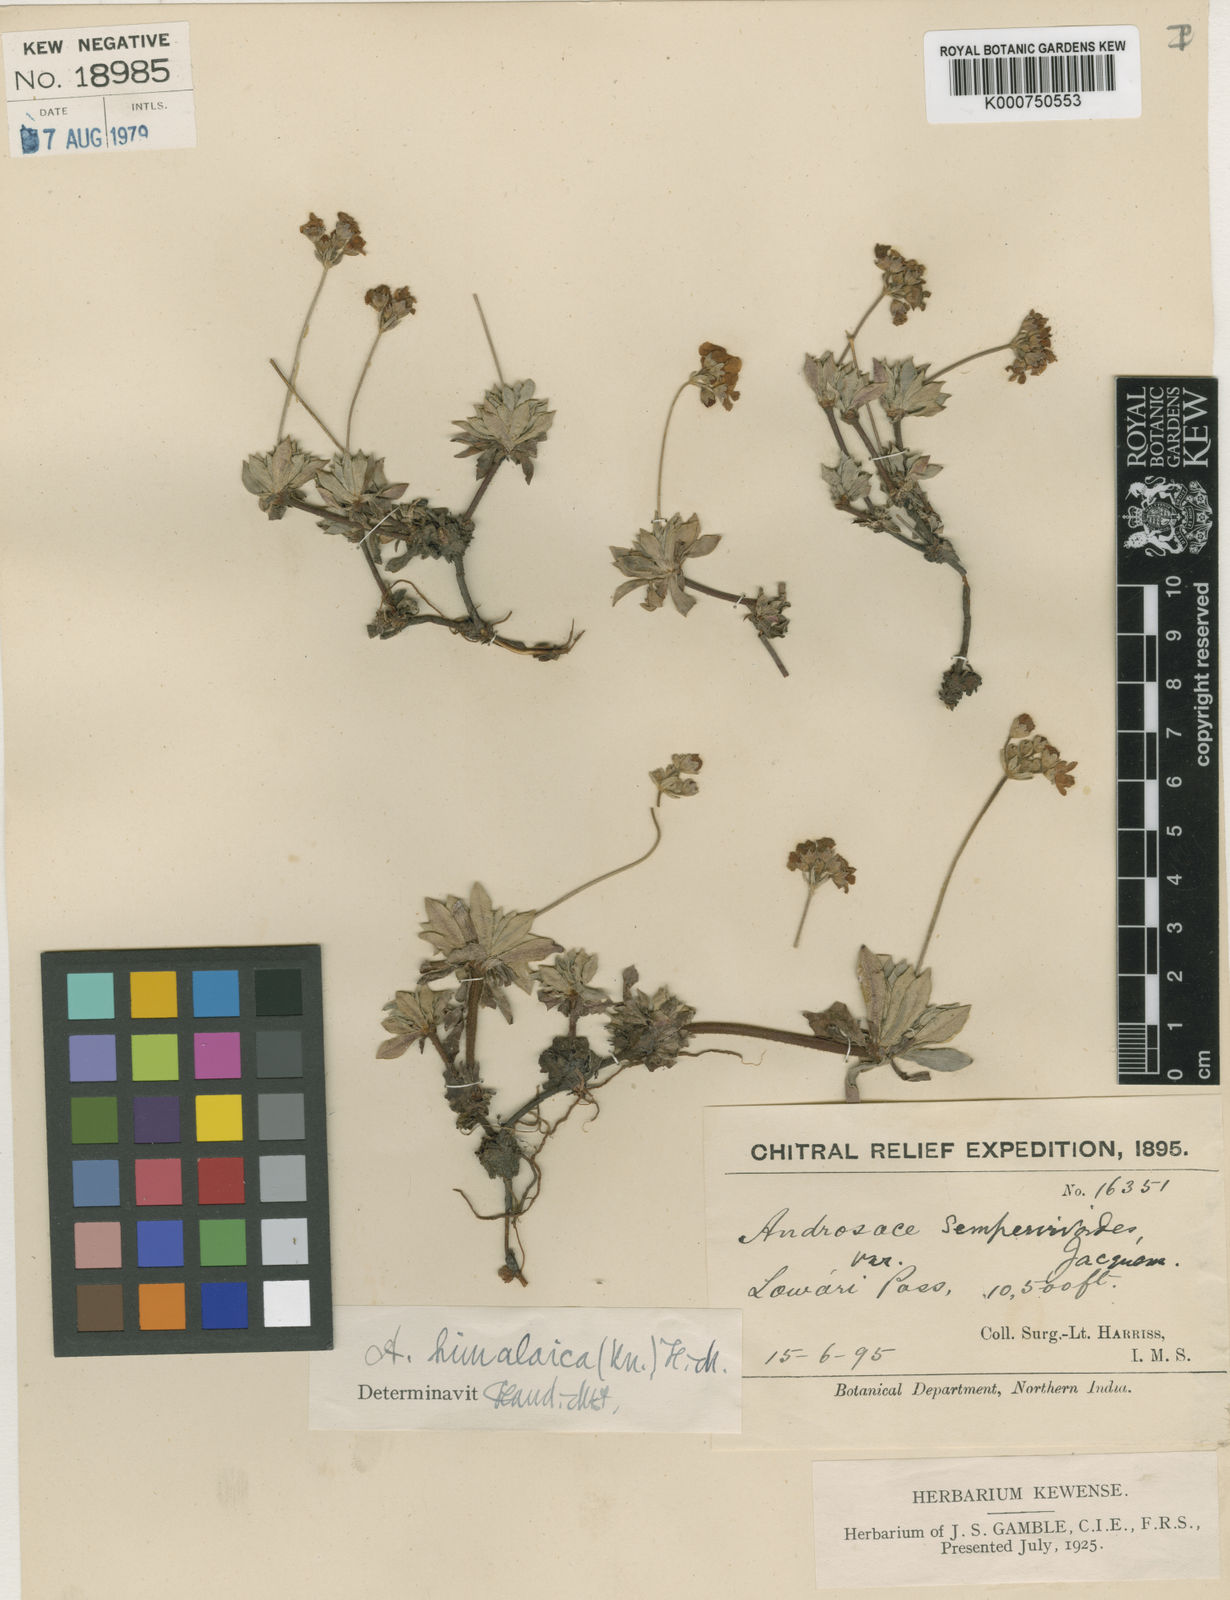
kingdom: Plantae
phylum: Tracheophyta
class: Magnoliopsida
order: Ericales
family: Primulaceae
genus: Androsace
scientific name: Androsace tibetica
